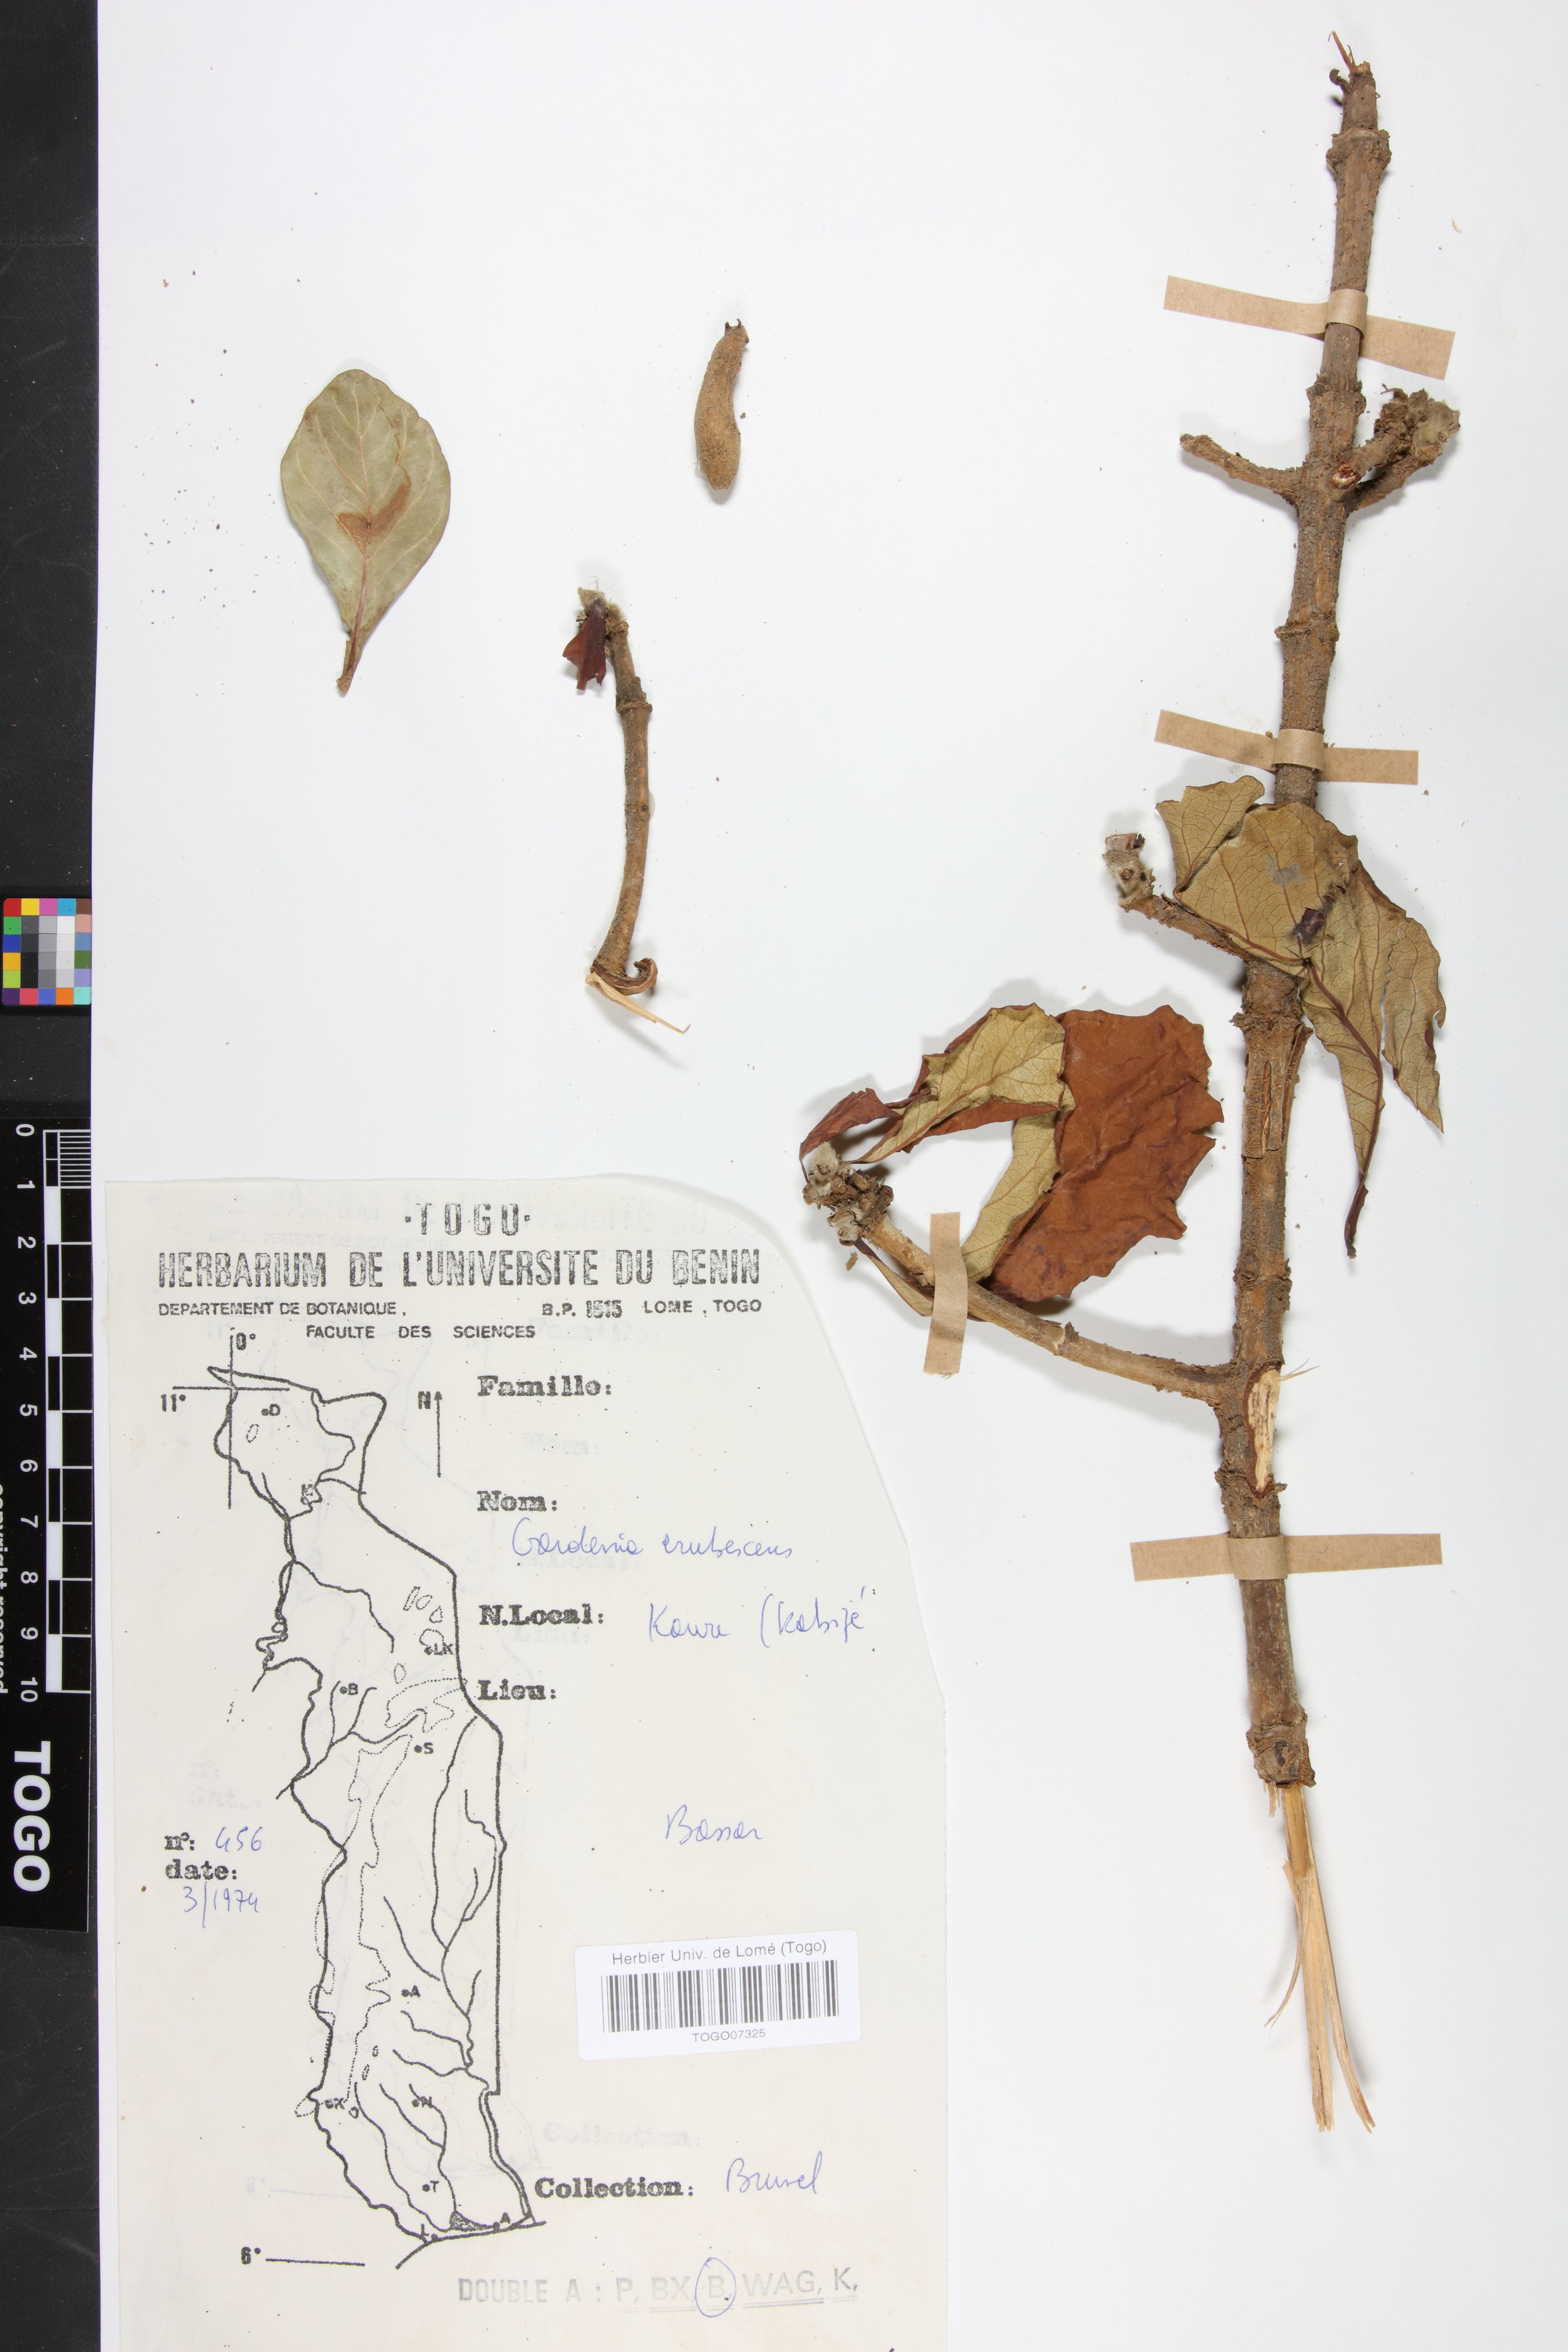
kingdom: Plantae
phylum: Tracheophyta
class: Magnoliopsida
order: Gentianales
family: Rubiaceae
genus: Gardenia
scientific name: Gardenia erubescens
